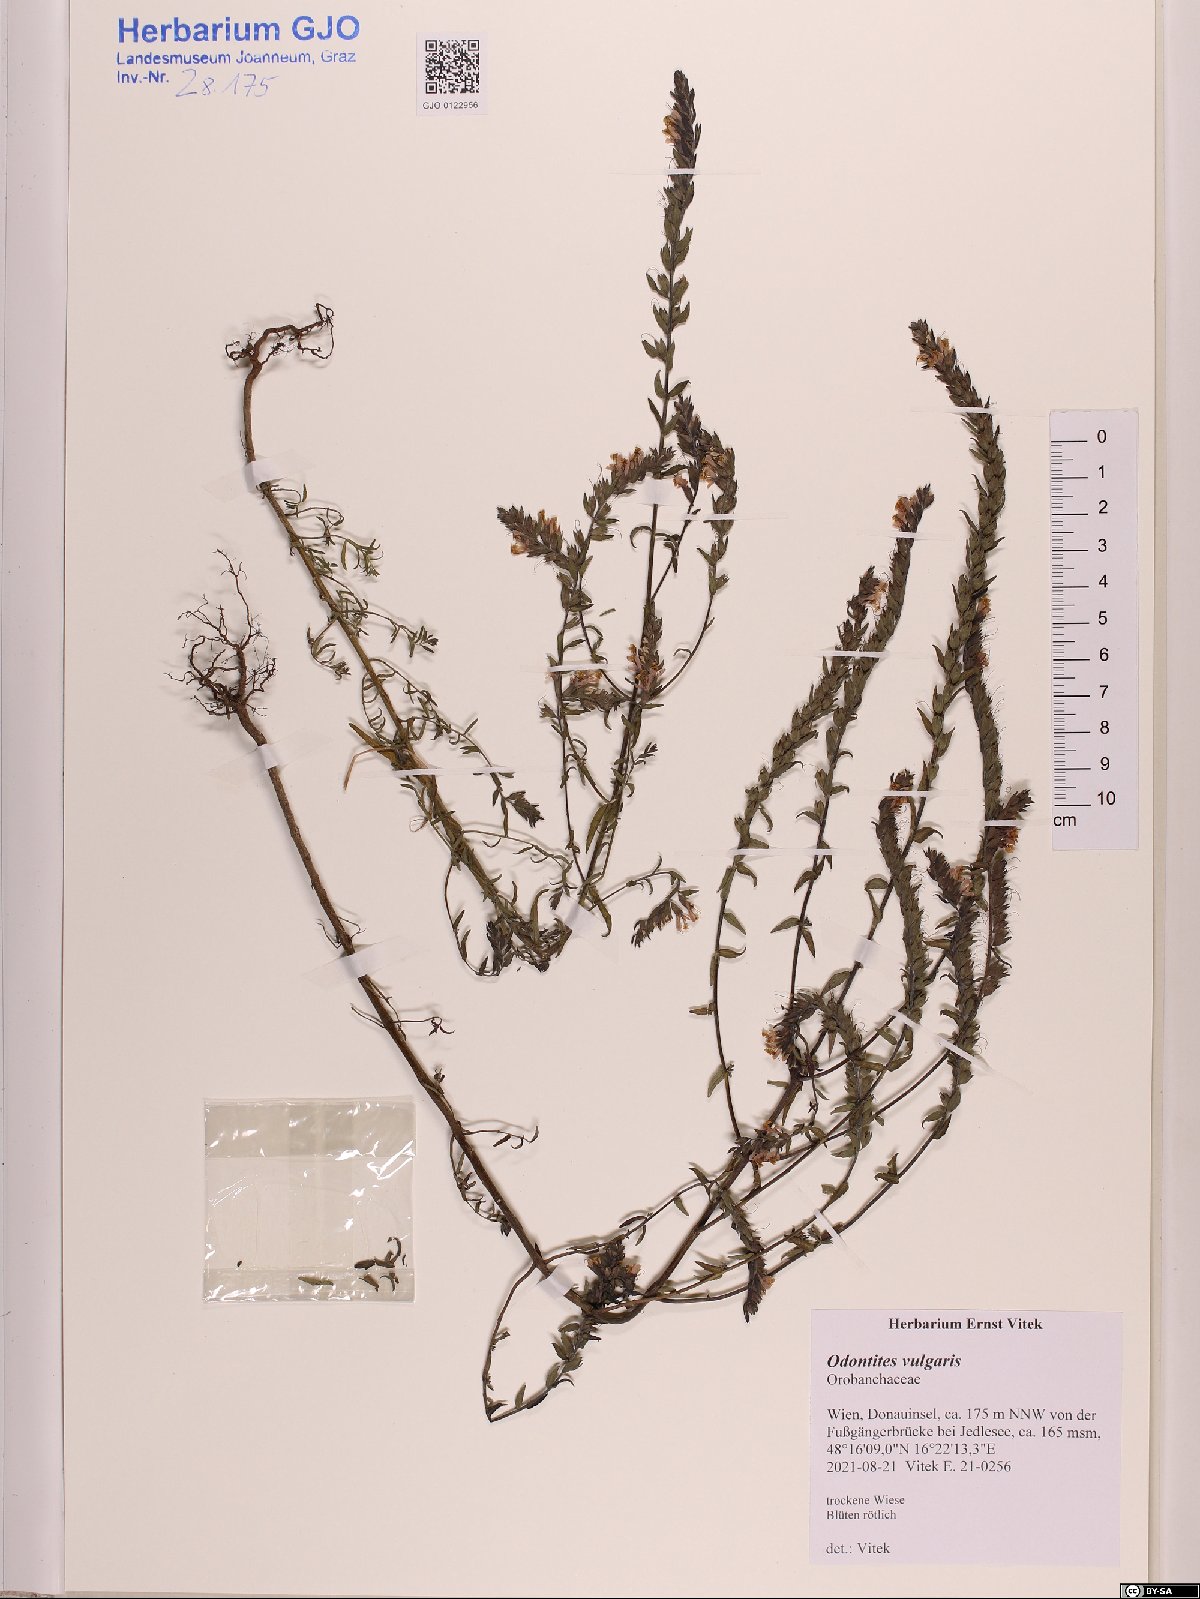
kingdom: Plantae
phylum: Tracheophyta
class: Magnoliopsida
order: Lamiales
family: Orobanchaceae
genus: Odontites
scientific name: Odontites vulgaris
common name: Broomrape
